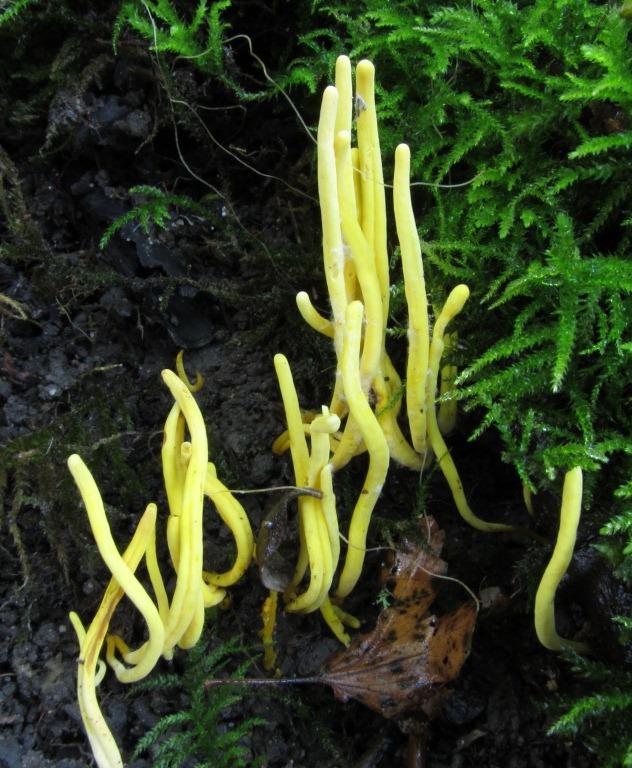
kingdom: Fungi
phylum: Basidiomycota
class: Agaricomycetes
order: Agaricales
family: Clavariaceae
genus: Clavulinopsis
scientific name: Clavulinopsis helvola
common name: orangegul køllesvamp
